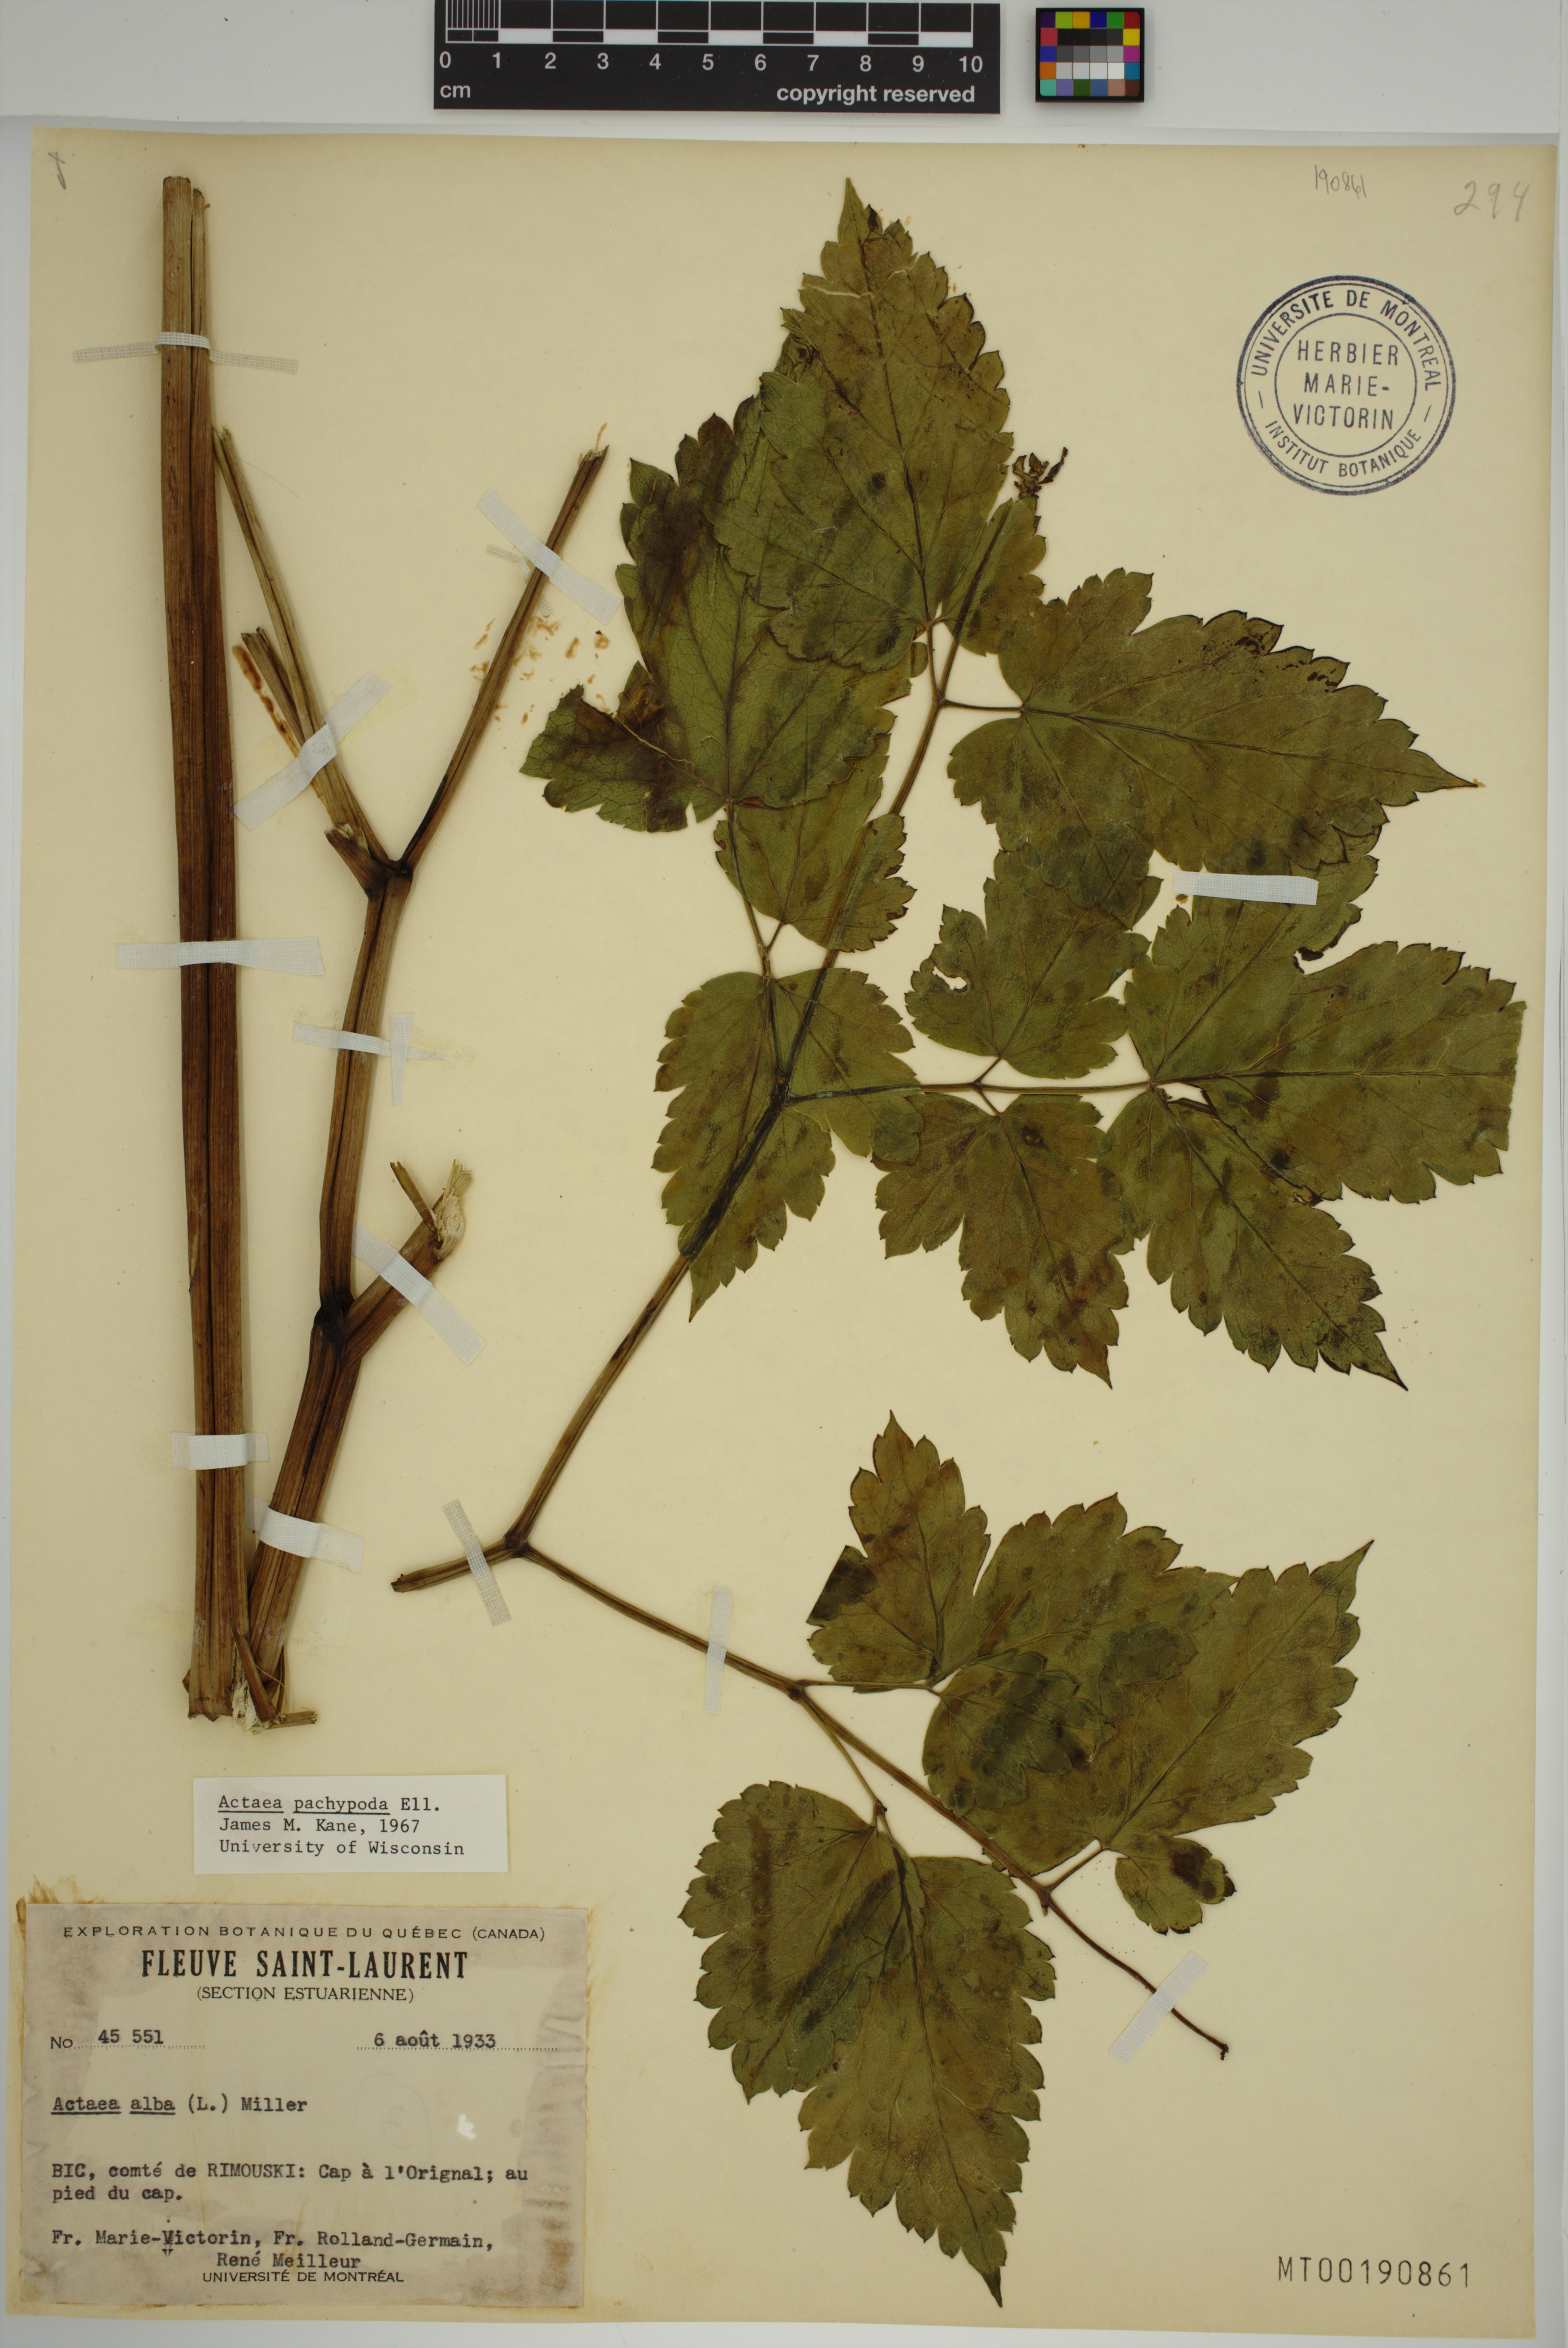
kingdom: Plantae
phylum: Tracheophyta
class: Magnoliopsida
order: Ranunculales
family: Ranunculaceae
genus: Actaea
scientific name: Actaea pachypoda
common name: Doll's-eyes
